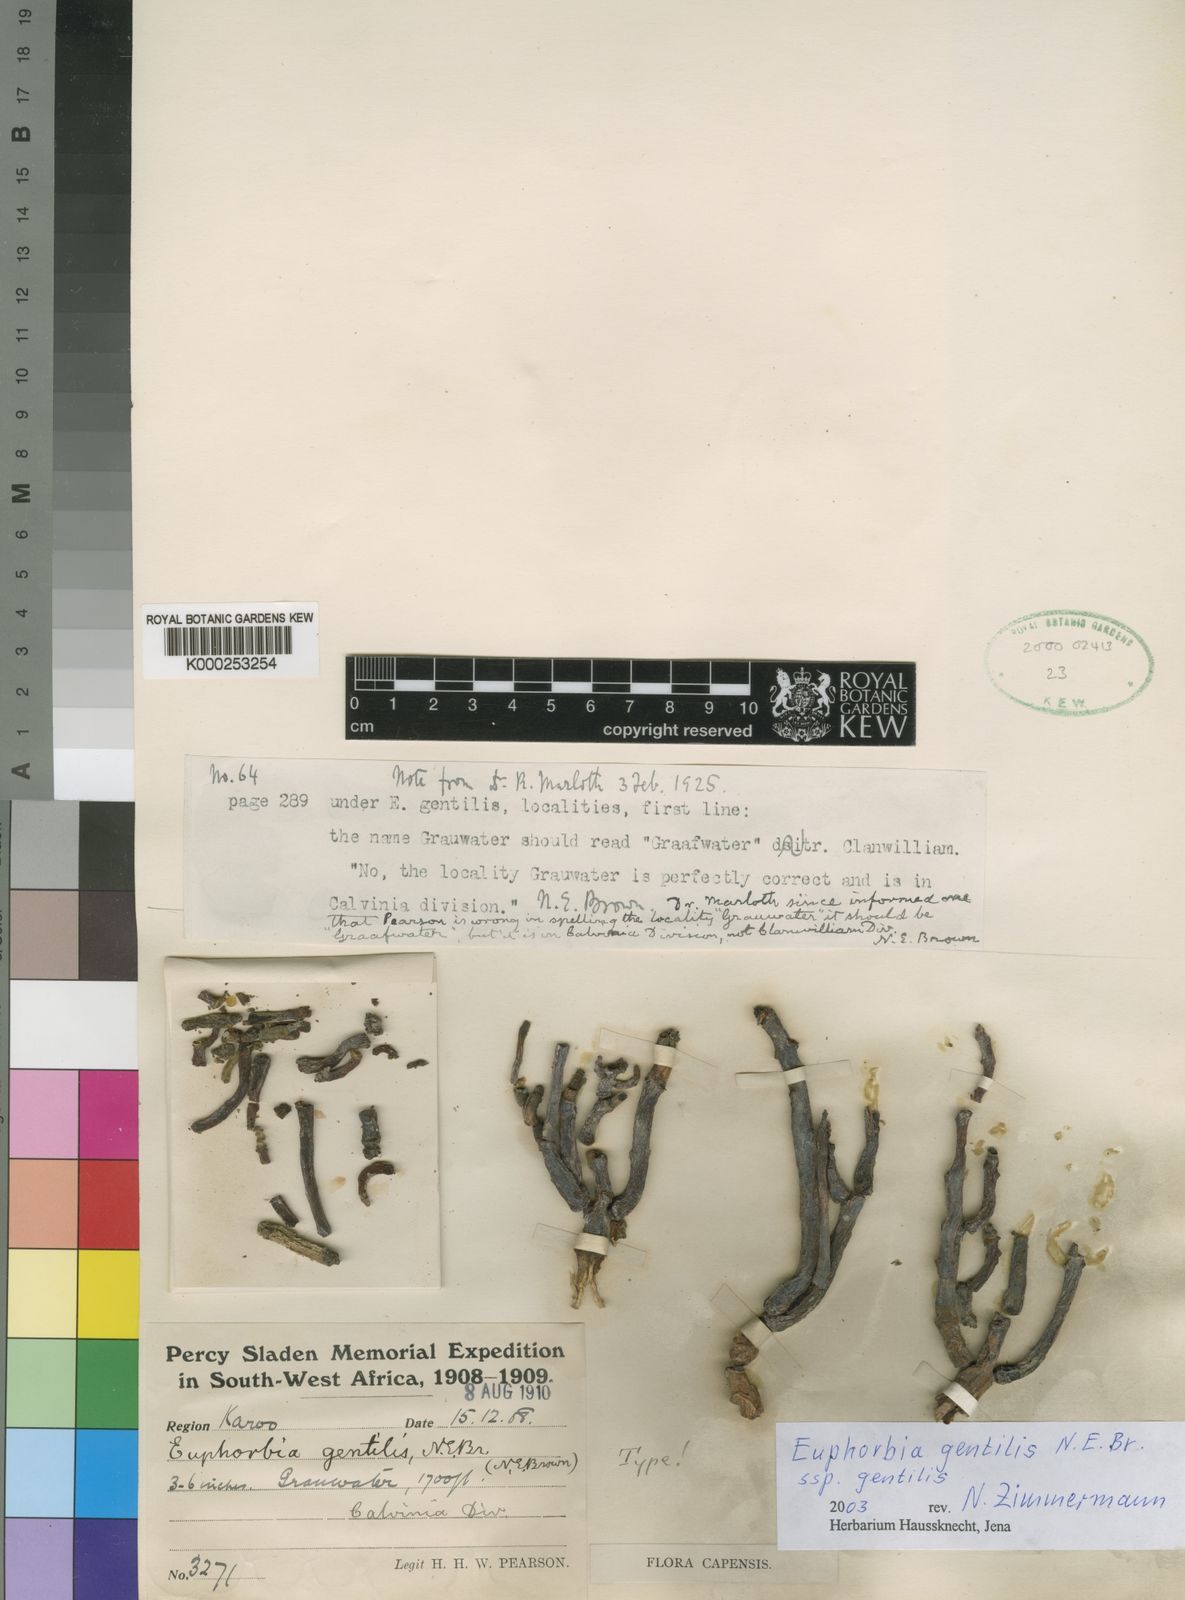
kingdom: Plantae
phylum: Tracheophyta
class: Magnoliopsida
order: Malpighiales
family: Euphorbiaceae
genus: Euphorbia
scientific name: Euphorbia gentilis
